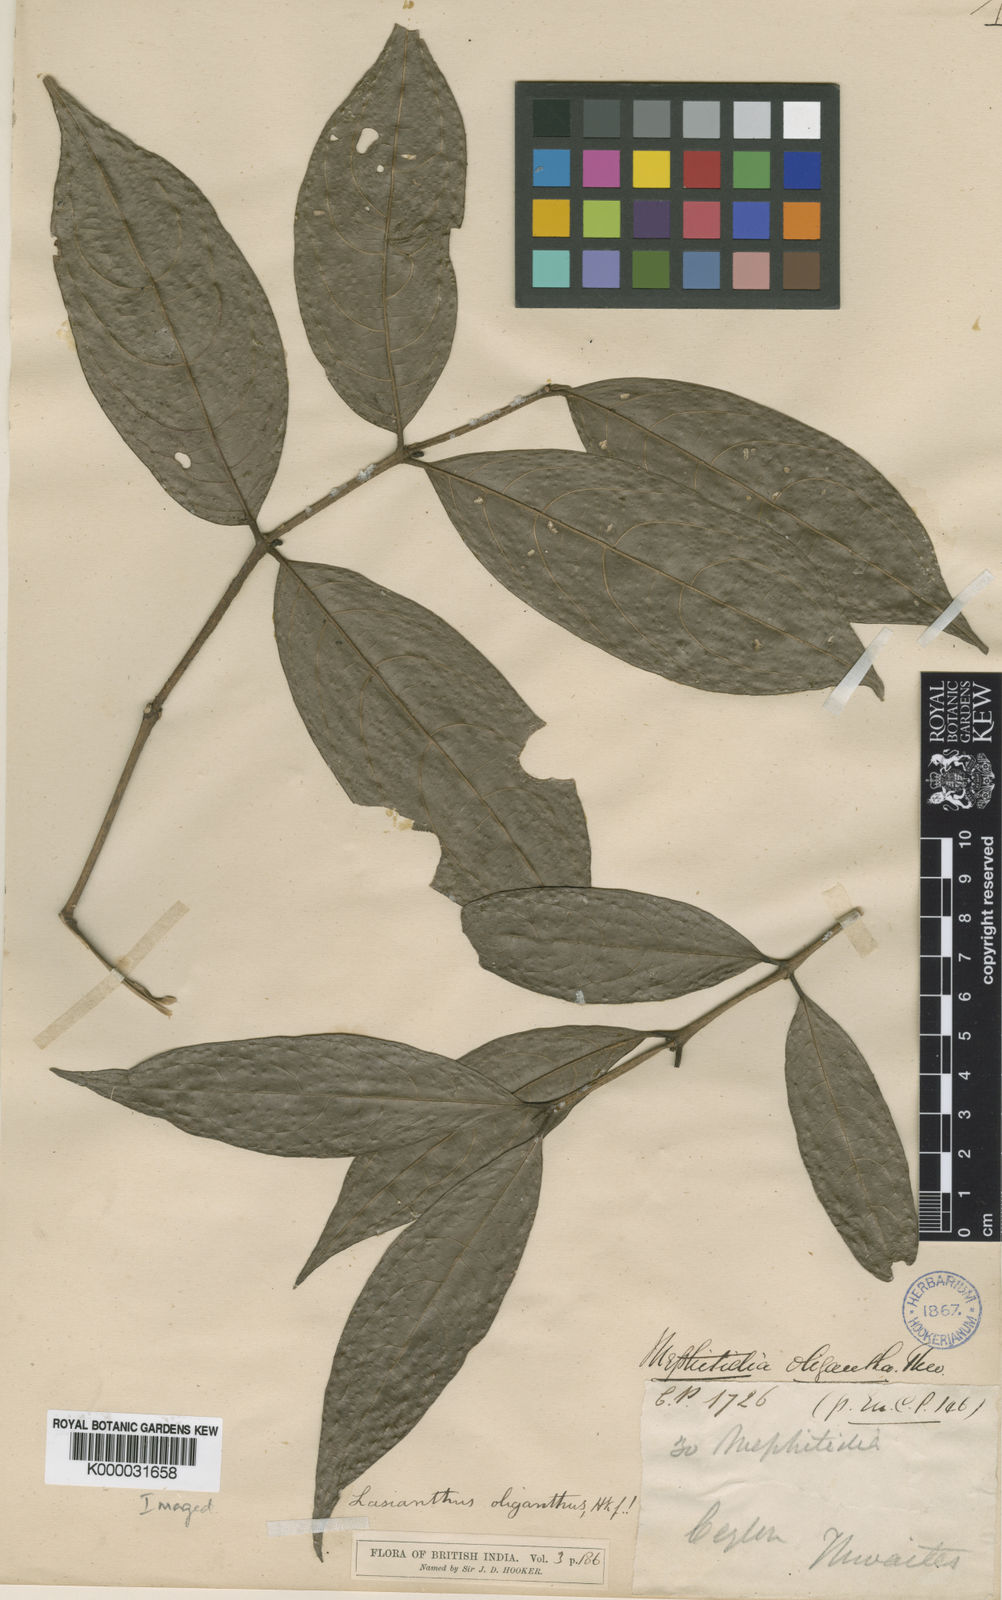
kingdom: Plantae
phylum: Tracheophyta
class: Magnoliopsida
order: Gentianales
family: Rubiaceae
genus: Lasianthus
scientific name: Lasianthus
